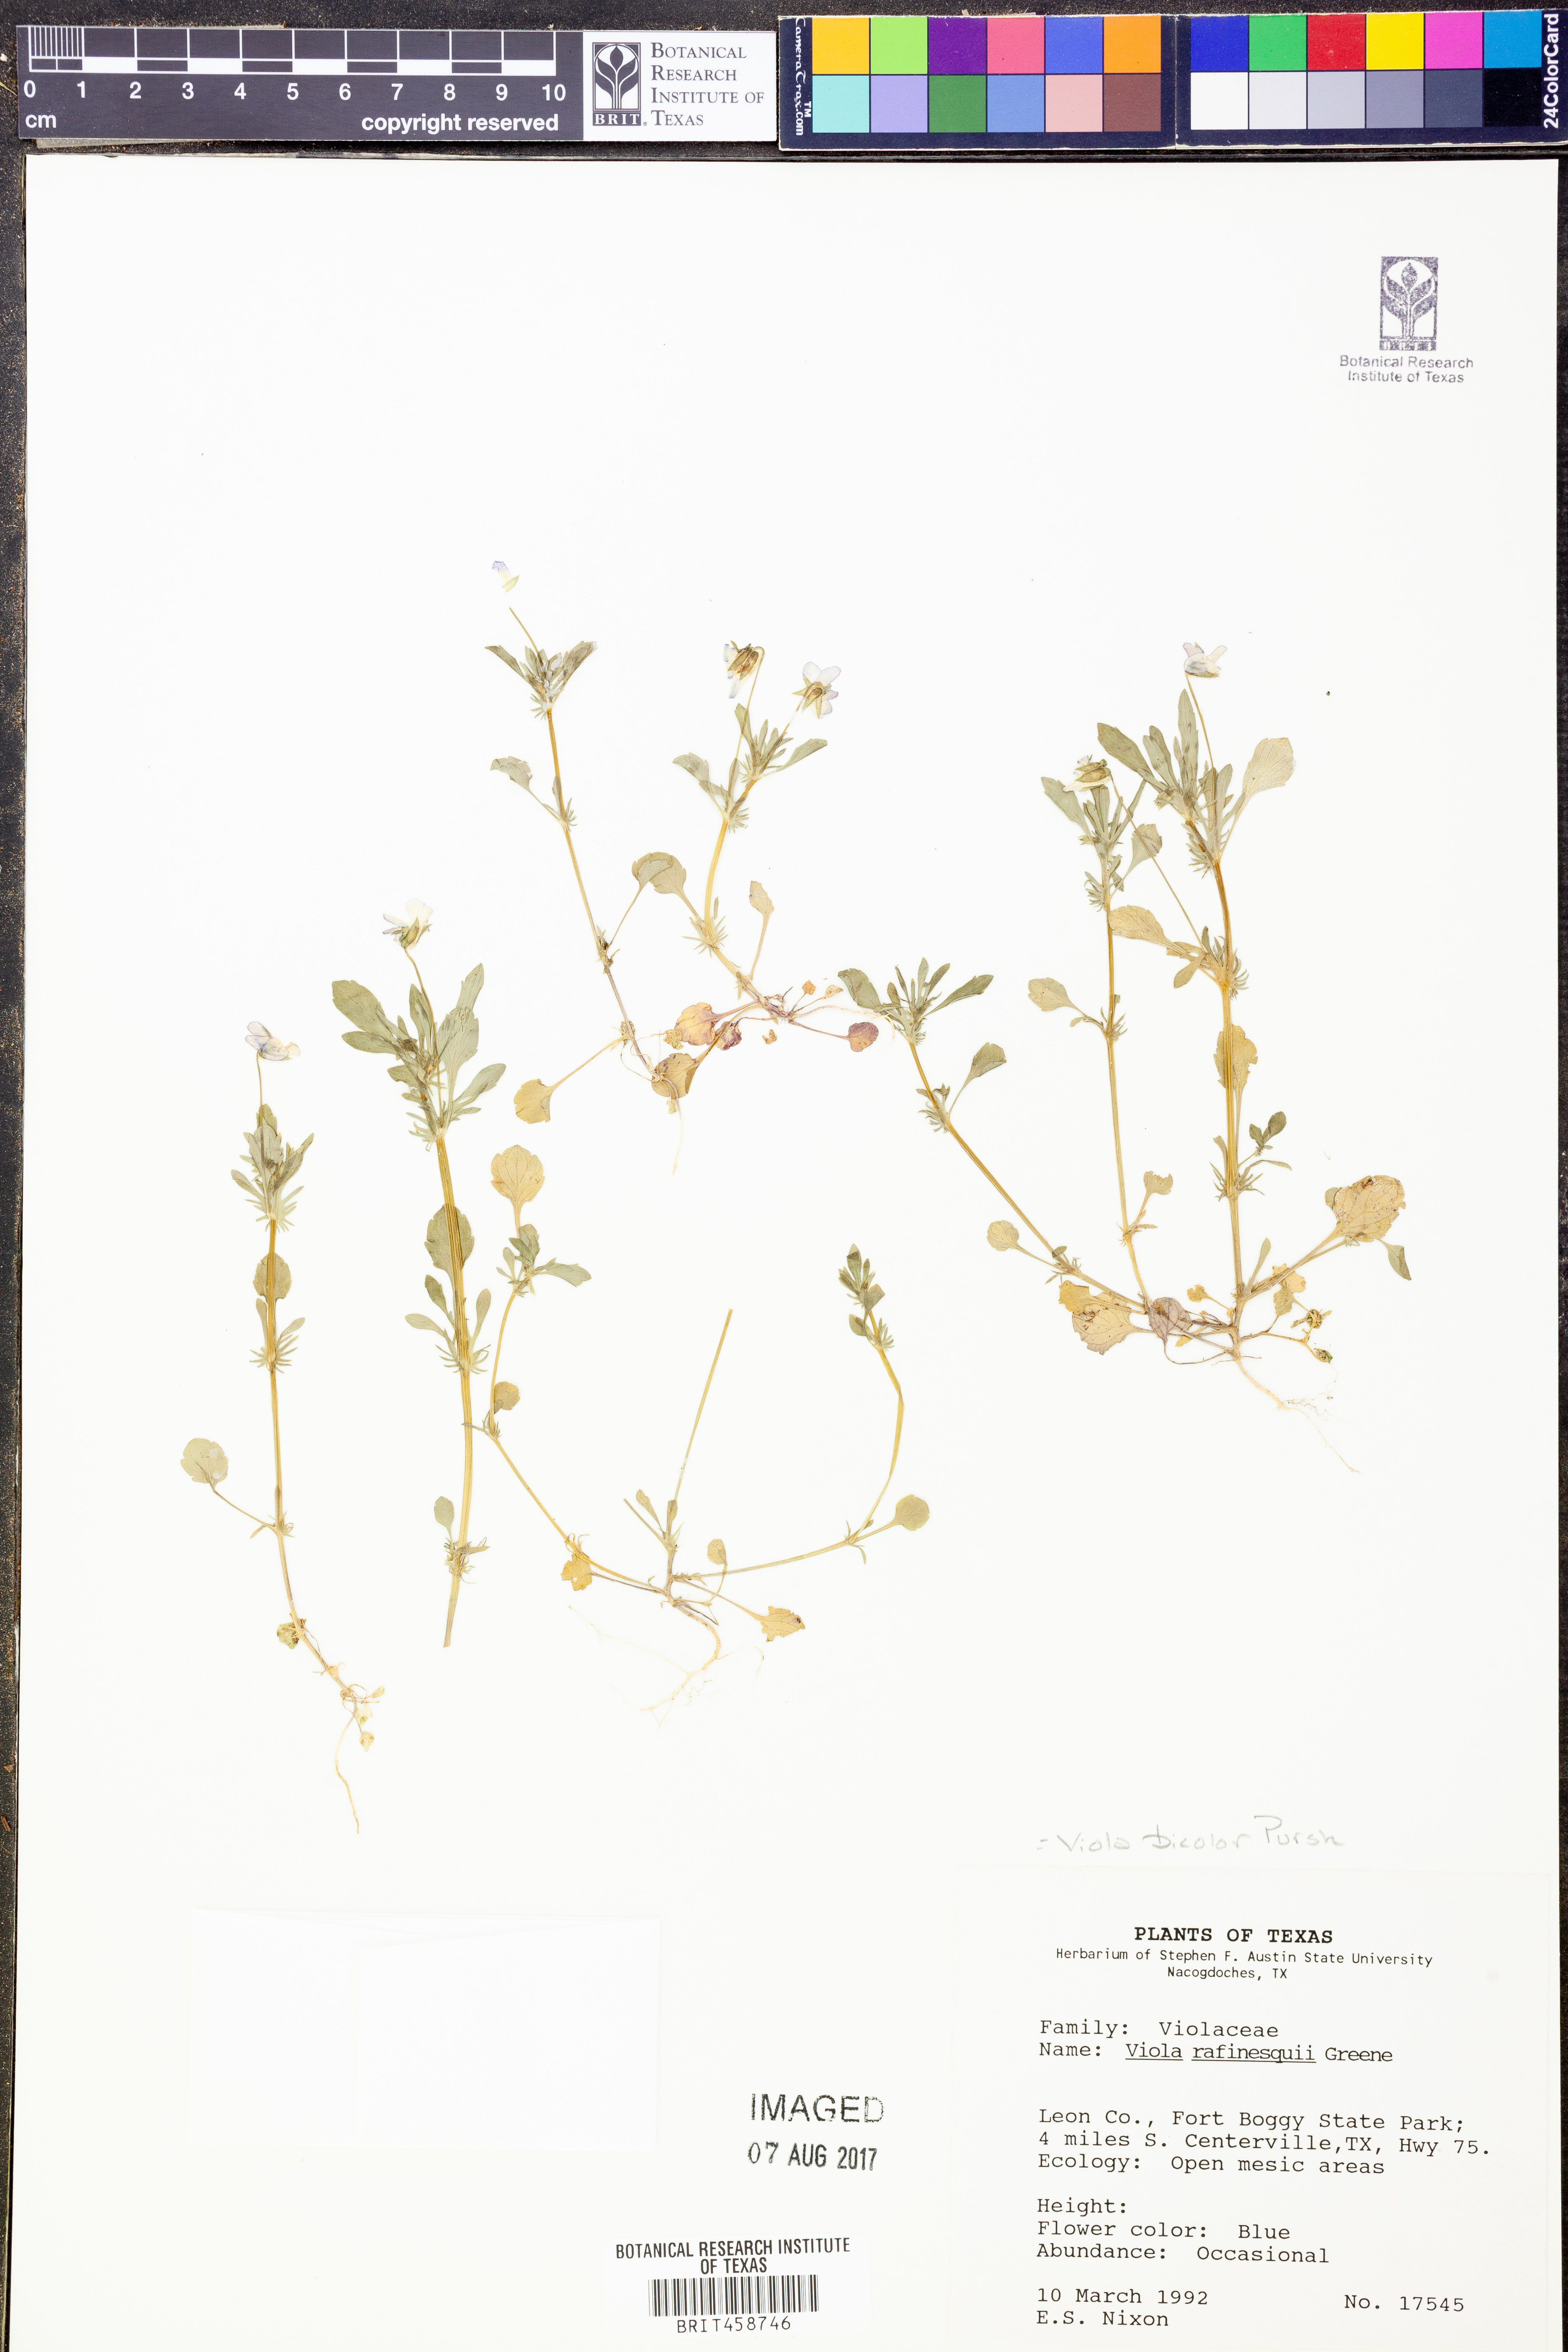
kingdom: Plantae
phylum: Tracheophyta
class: Magnoliopsida
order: Malpighiales
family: Violaceae
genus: Viola
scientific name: Viola rafinesquei
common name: American field pansy
